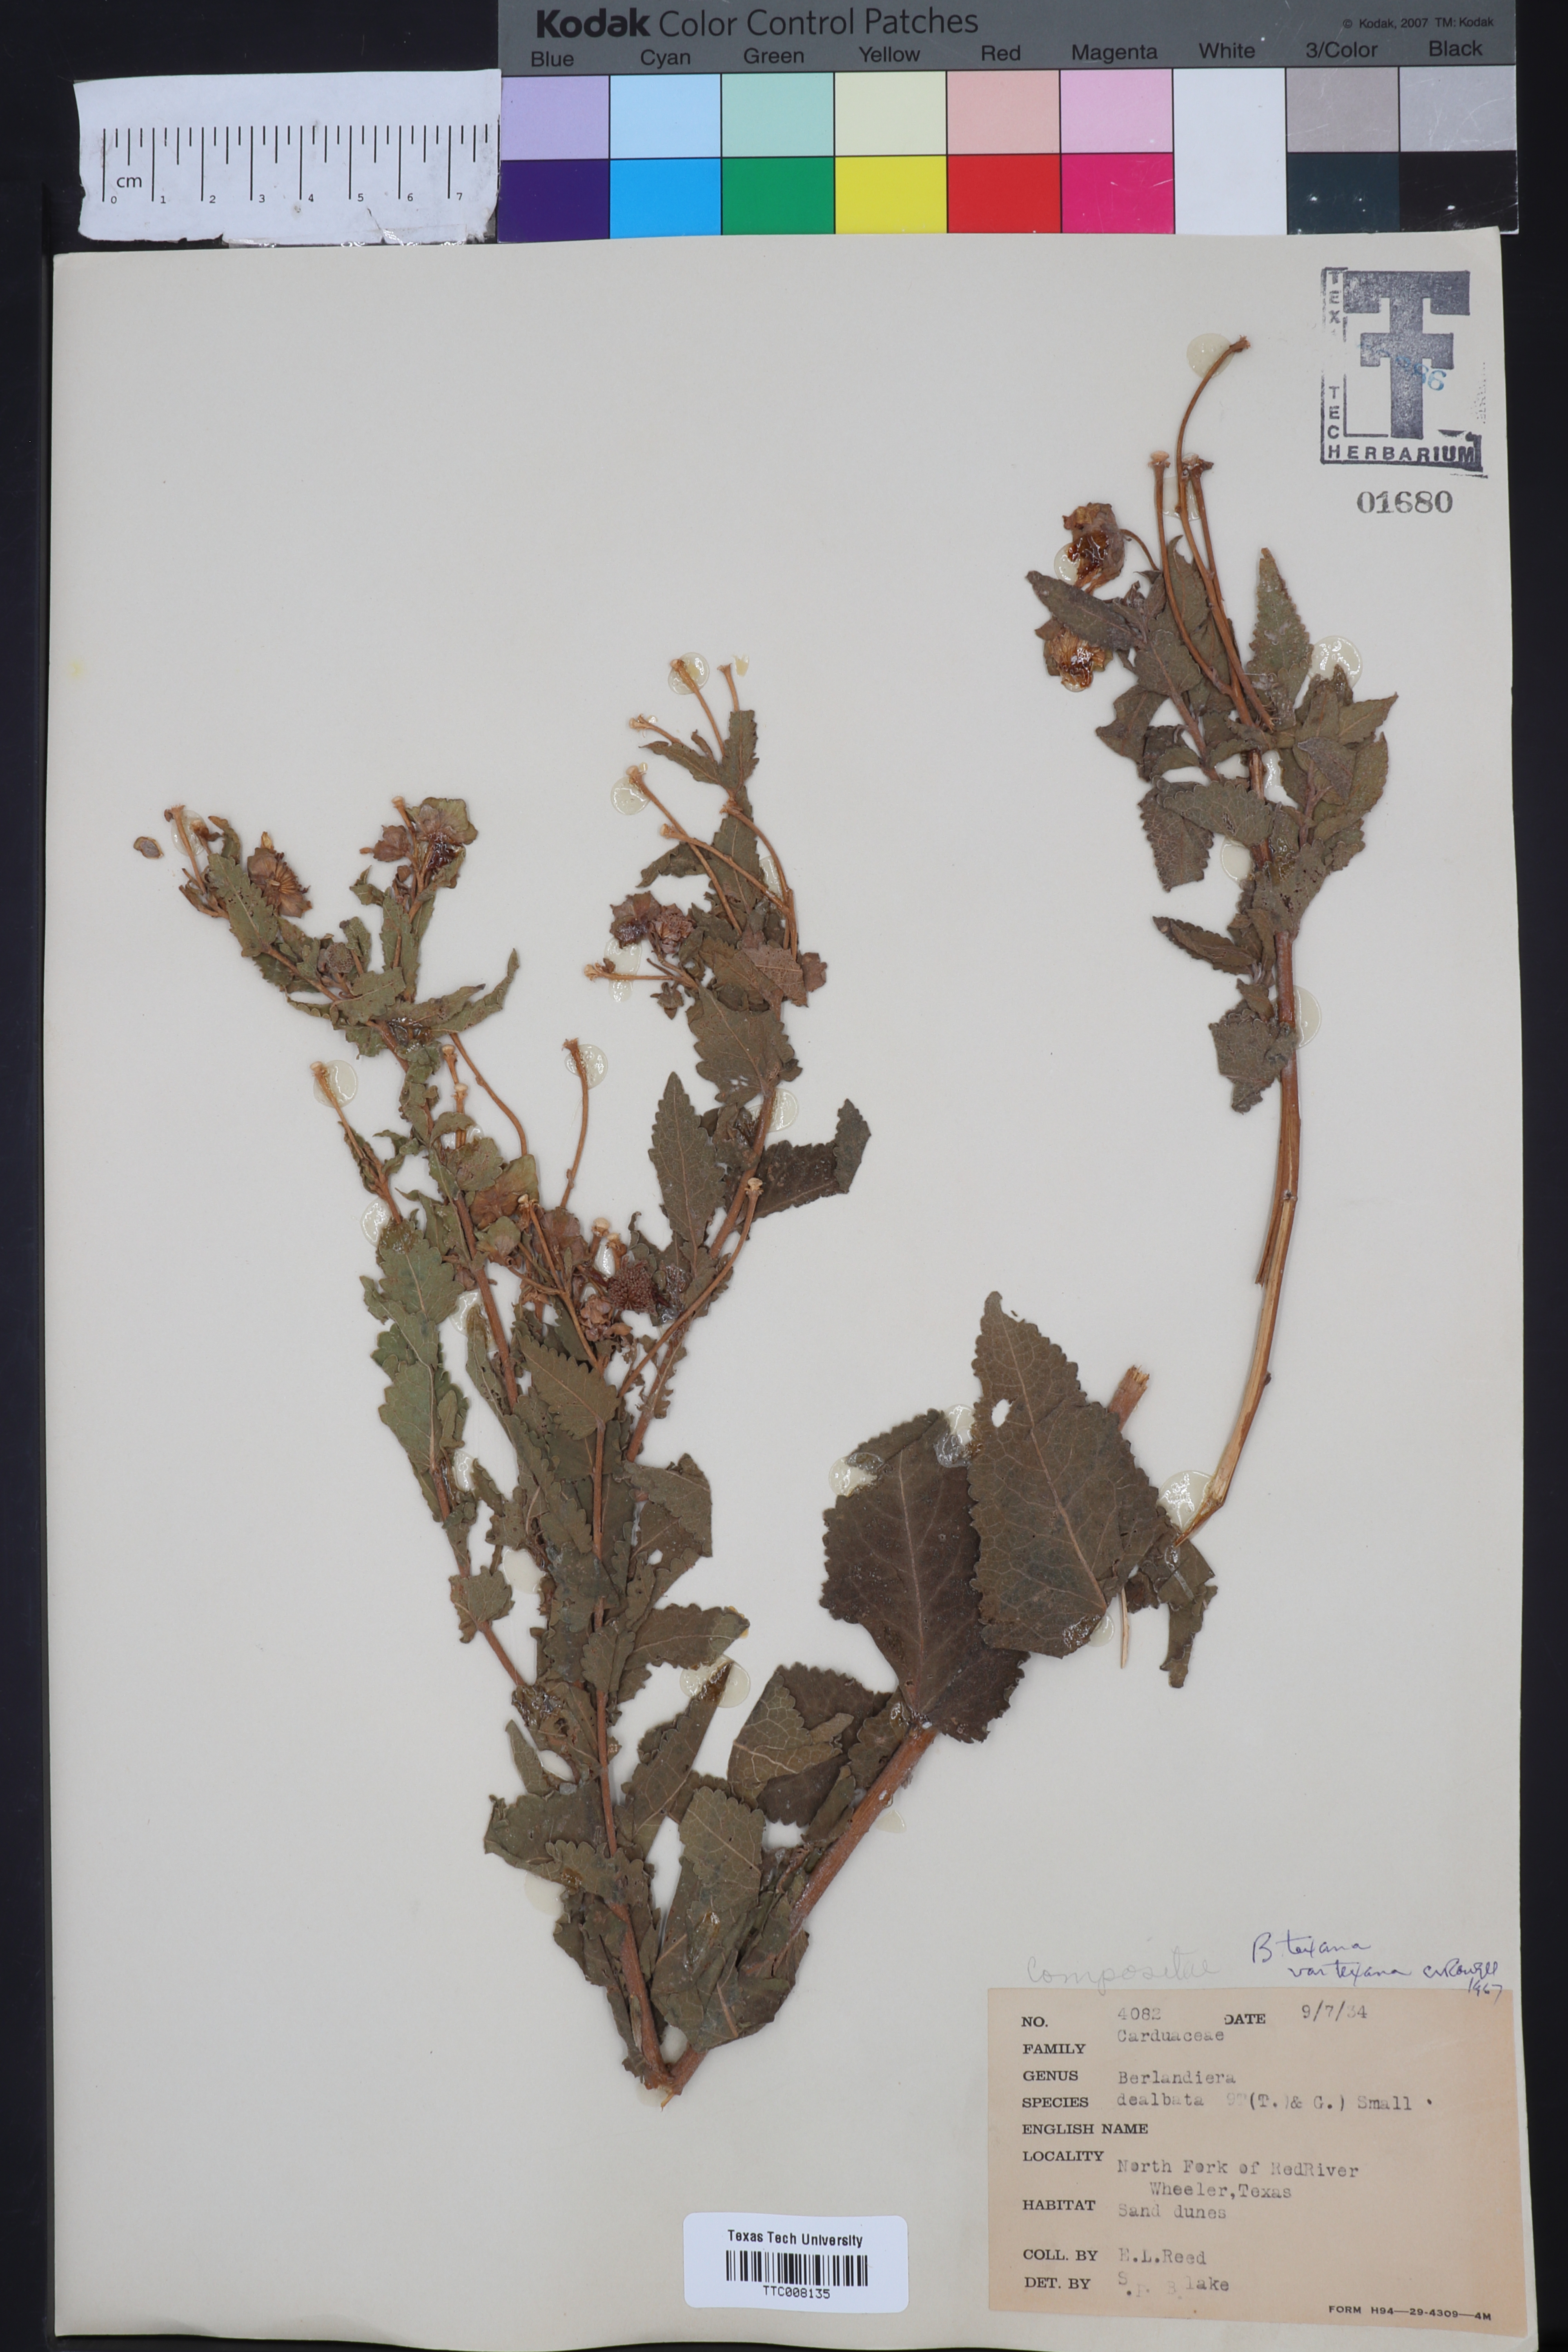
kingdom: Plantae
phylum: Tracheophyta
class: Magnoliopsida
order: Asterales
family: Asteraceae
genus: Berlandiera
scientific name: Berlandiera texana
